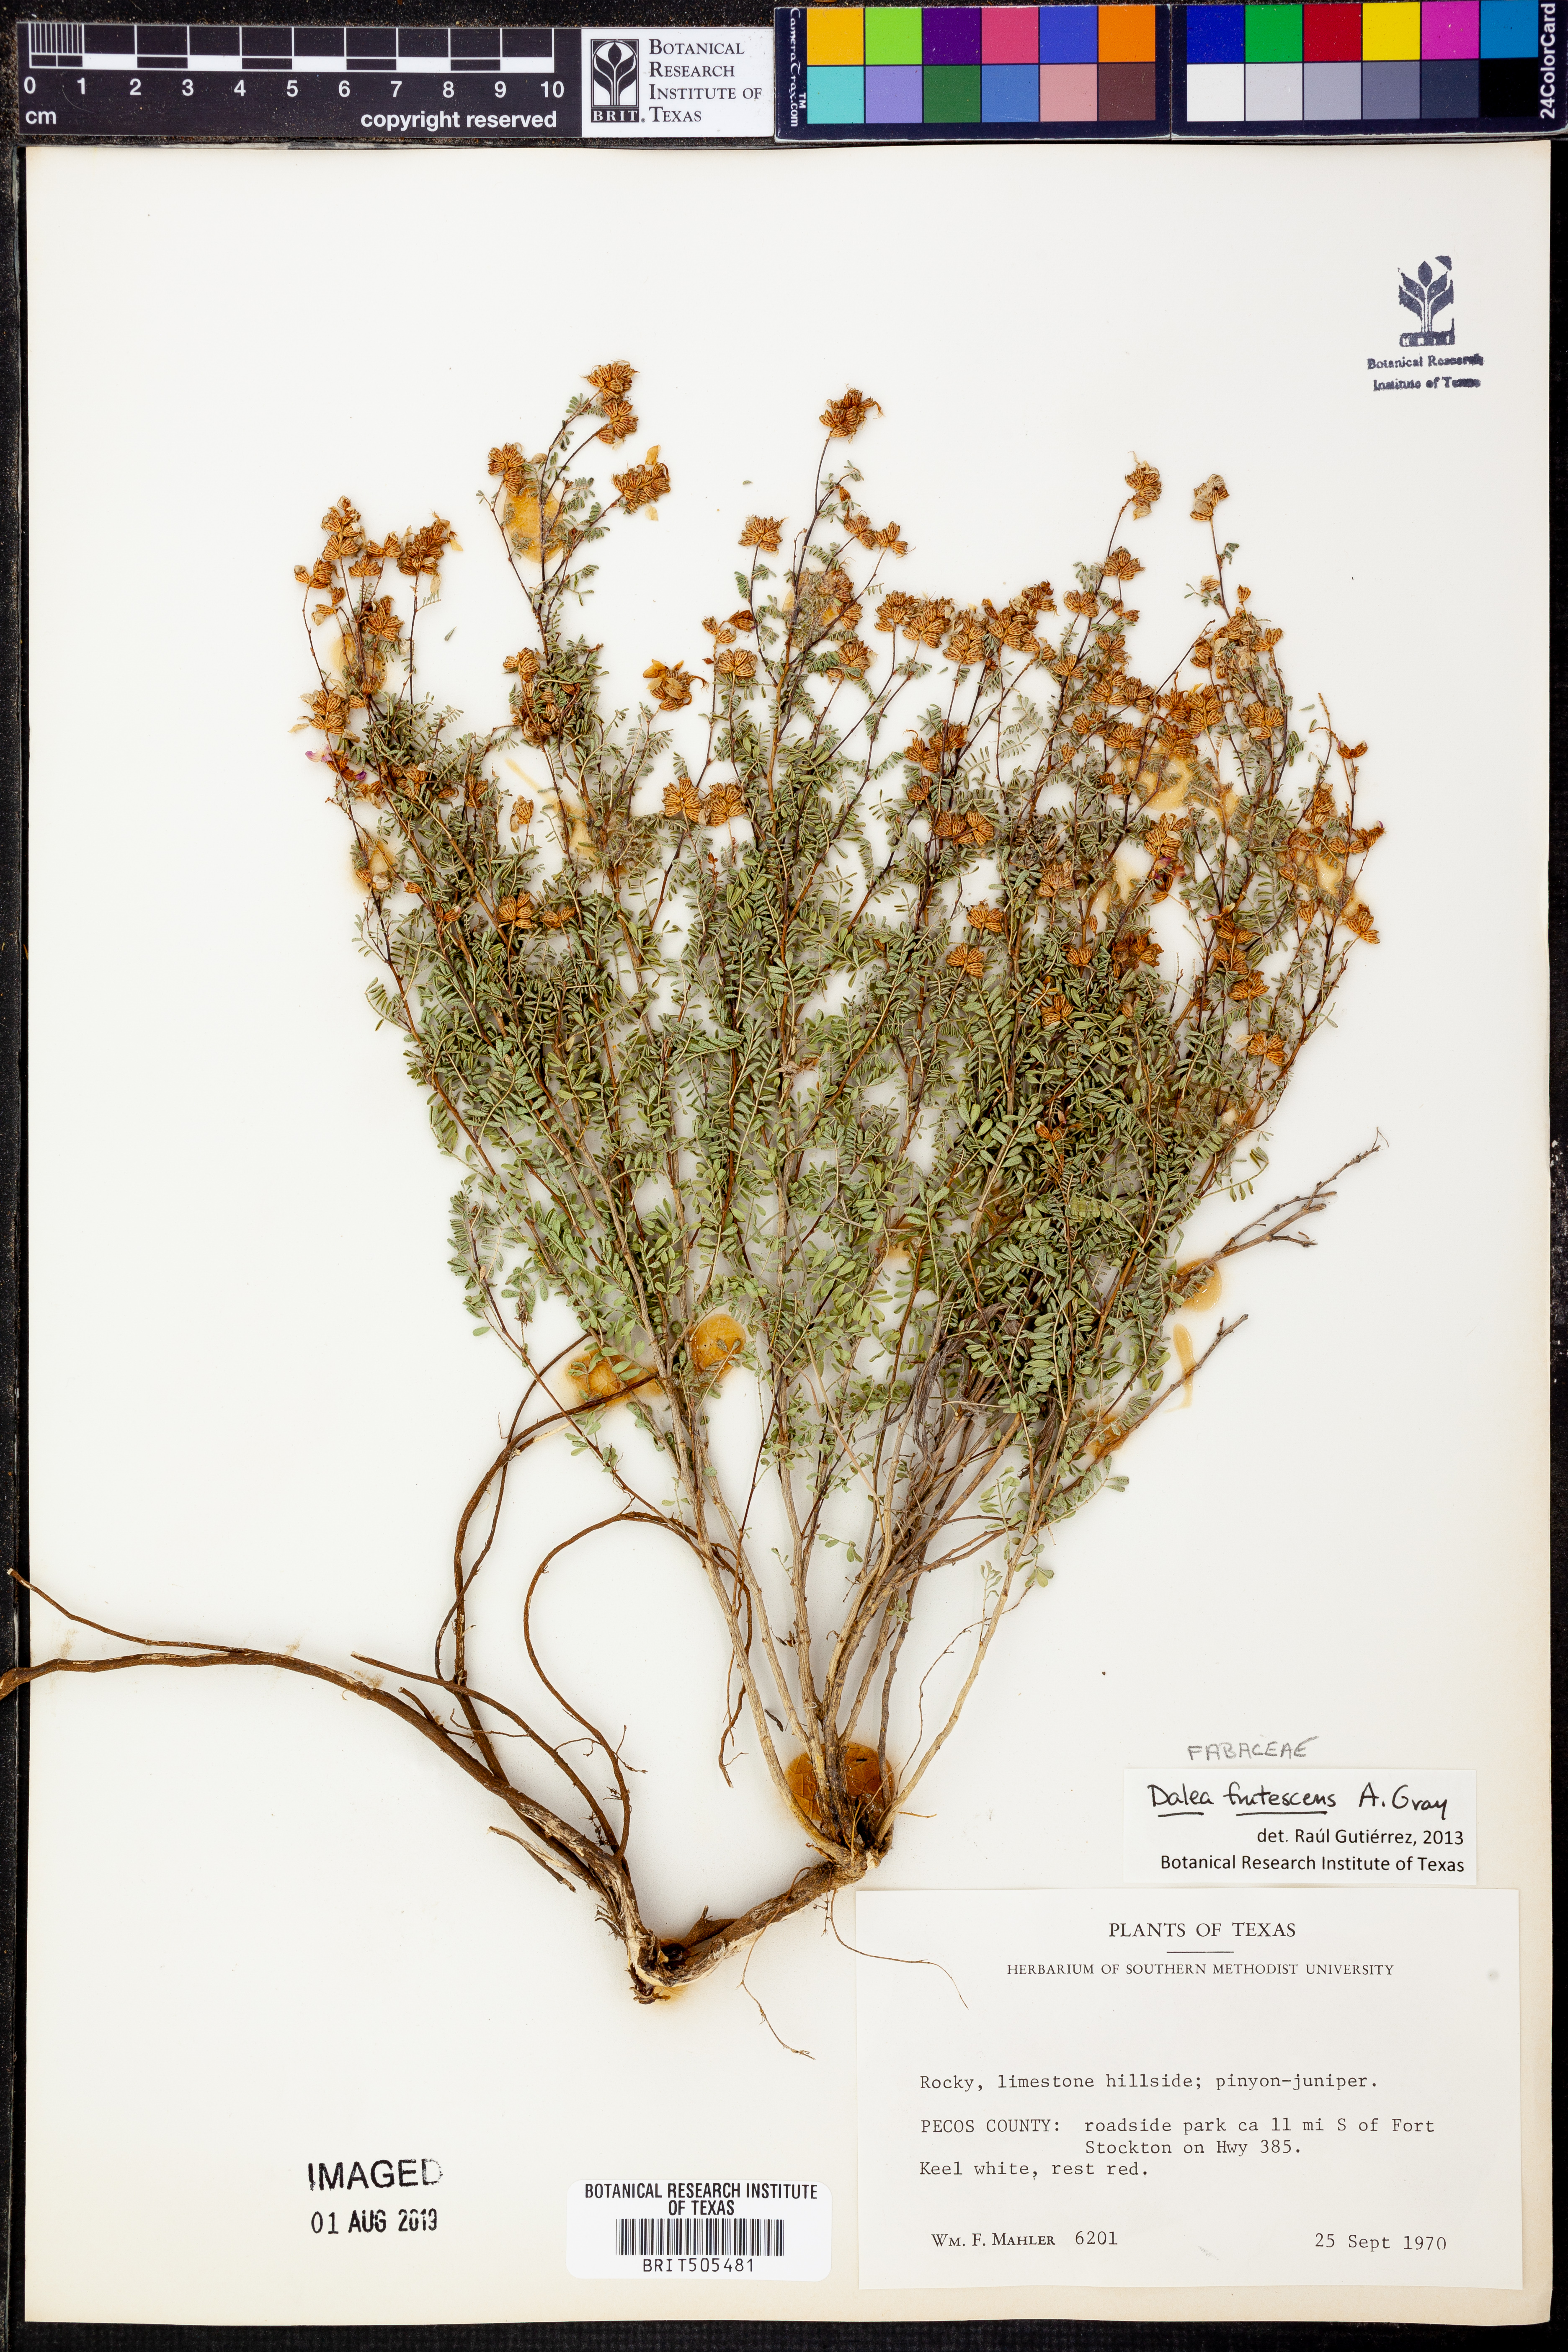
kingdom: Plantae
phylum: Tracheophyta
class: Magnoliopsida
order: Fabales
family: Fabaceae
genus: Dalea
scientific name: Dalea frutescens
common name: Black dalea
